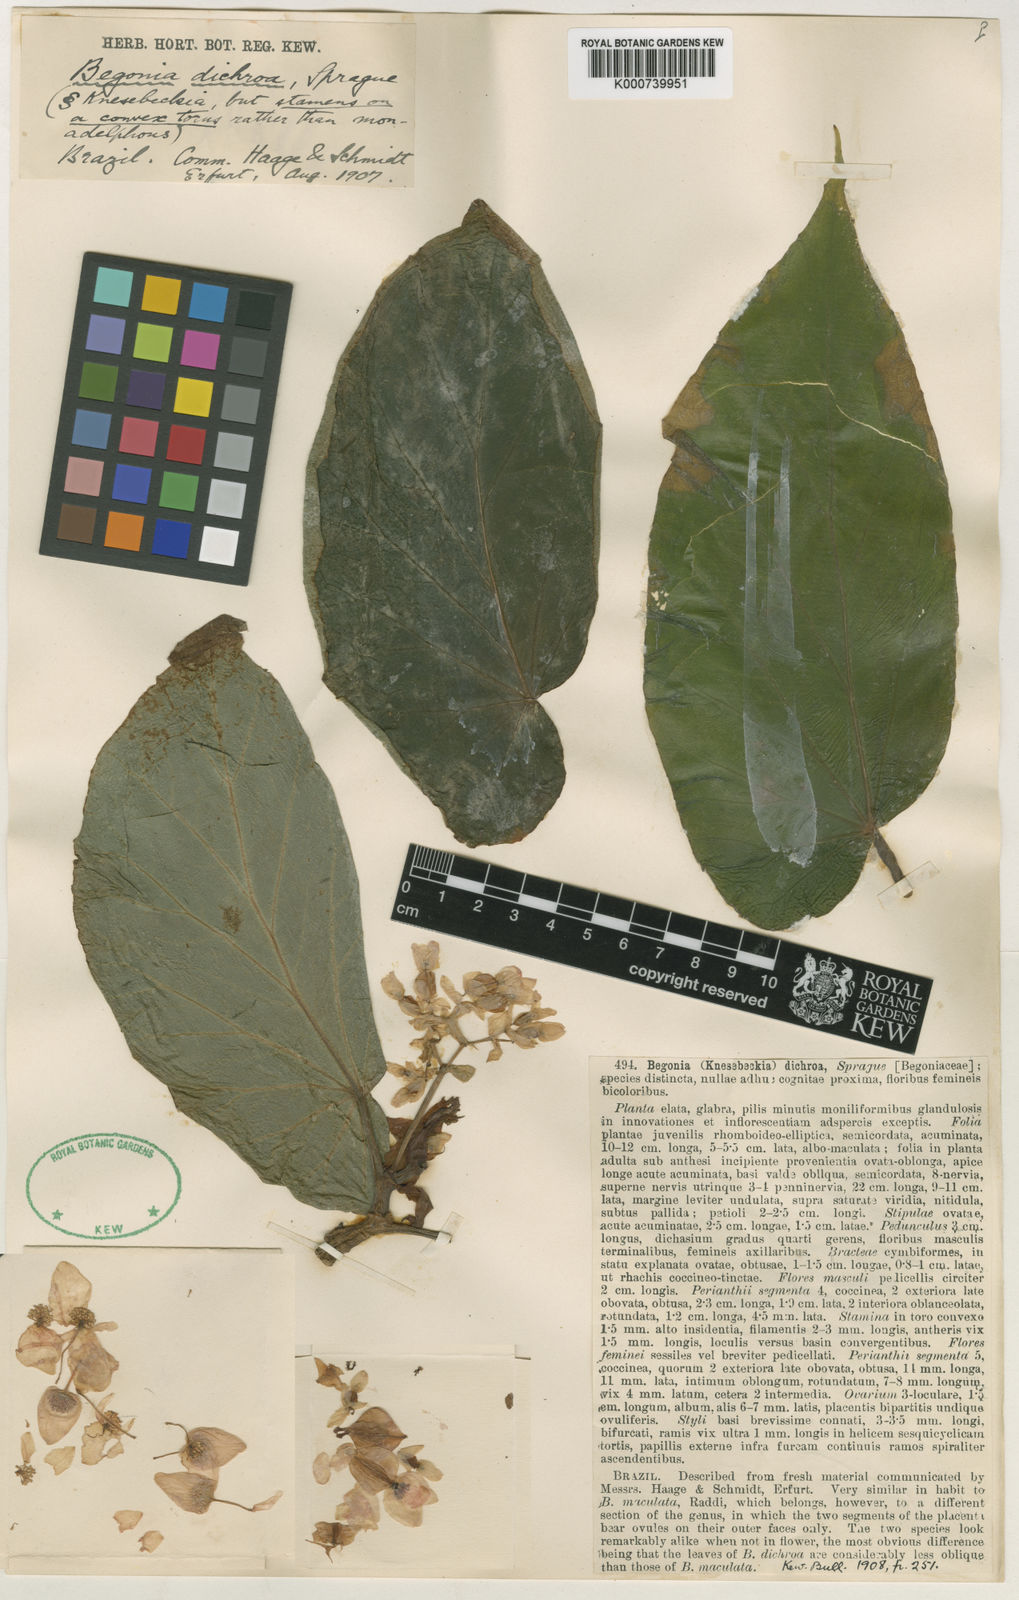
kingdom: Plantae
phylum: Tracheophyta
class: Magnoliopsida
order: Cucurbitales
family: Begoniaceae
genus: Begonia
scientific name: Begonia dichroa
